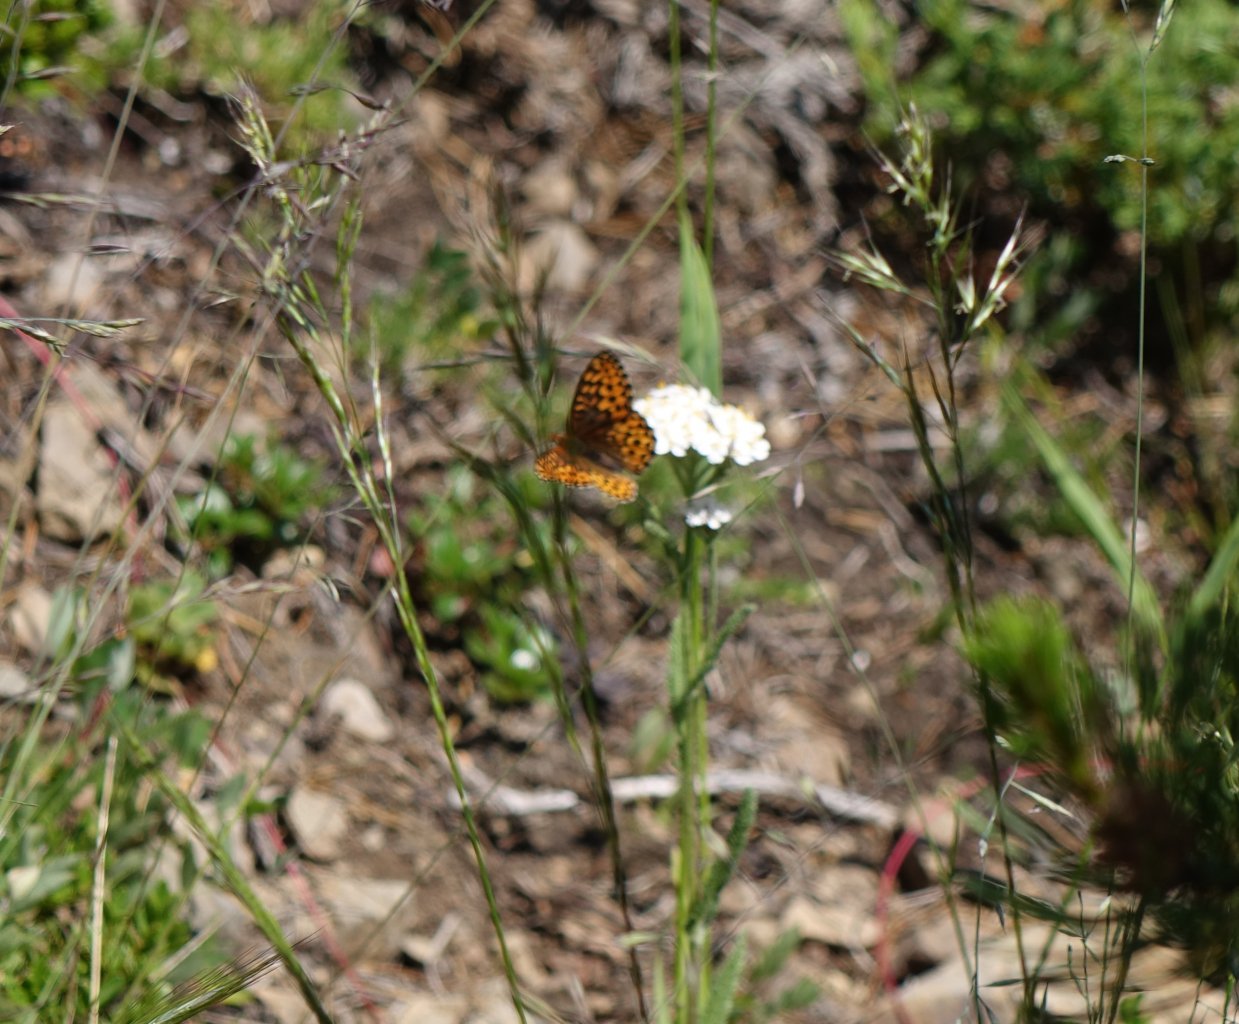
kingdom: Animalia
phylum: Arthropoda
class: Insecta
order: Lepidoptera
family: Nymphalidae
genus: Boloria
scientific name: Boloria chariclea
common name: Arctic Fritillary
